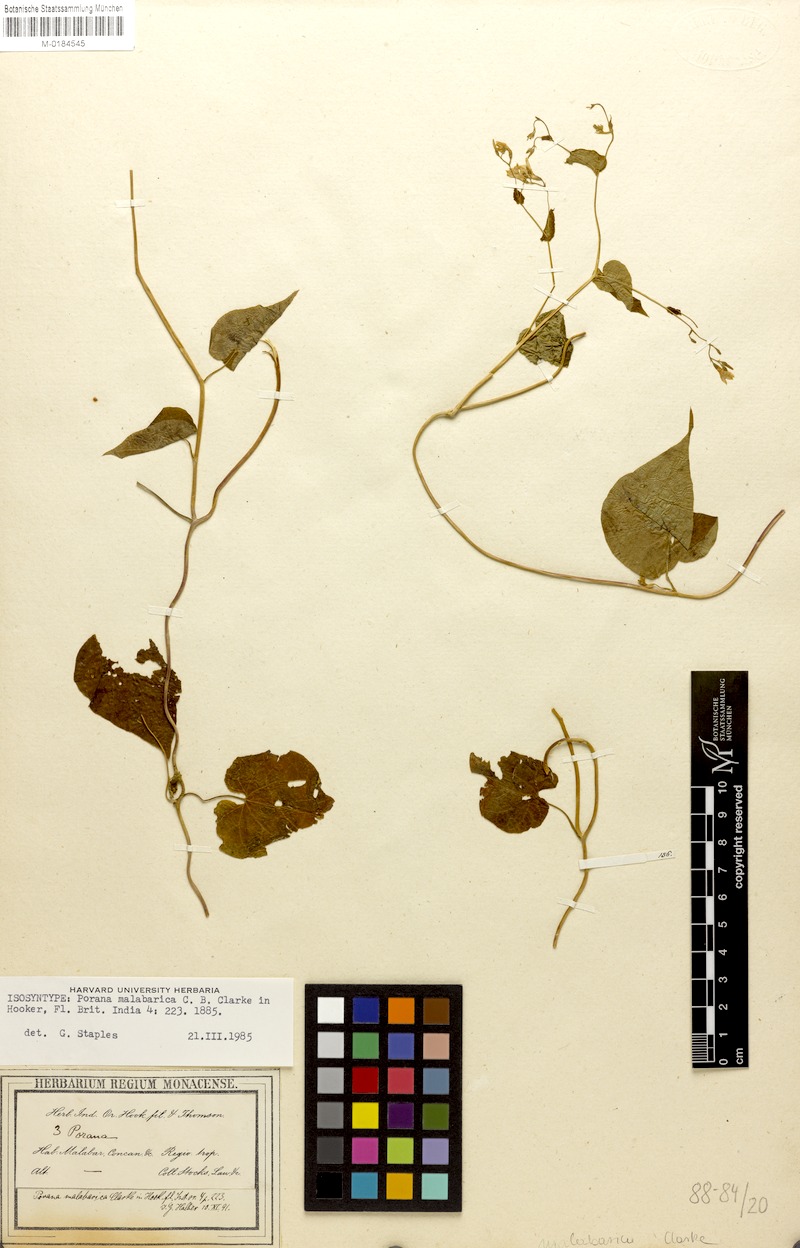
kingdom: Plantae
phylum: Tracheophyta
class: Magnoliopsida
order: Solanales
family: Convolvulaceae
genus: Dinetus
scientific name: Dinetus malabaricus
